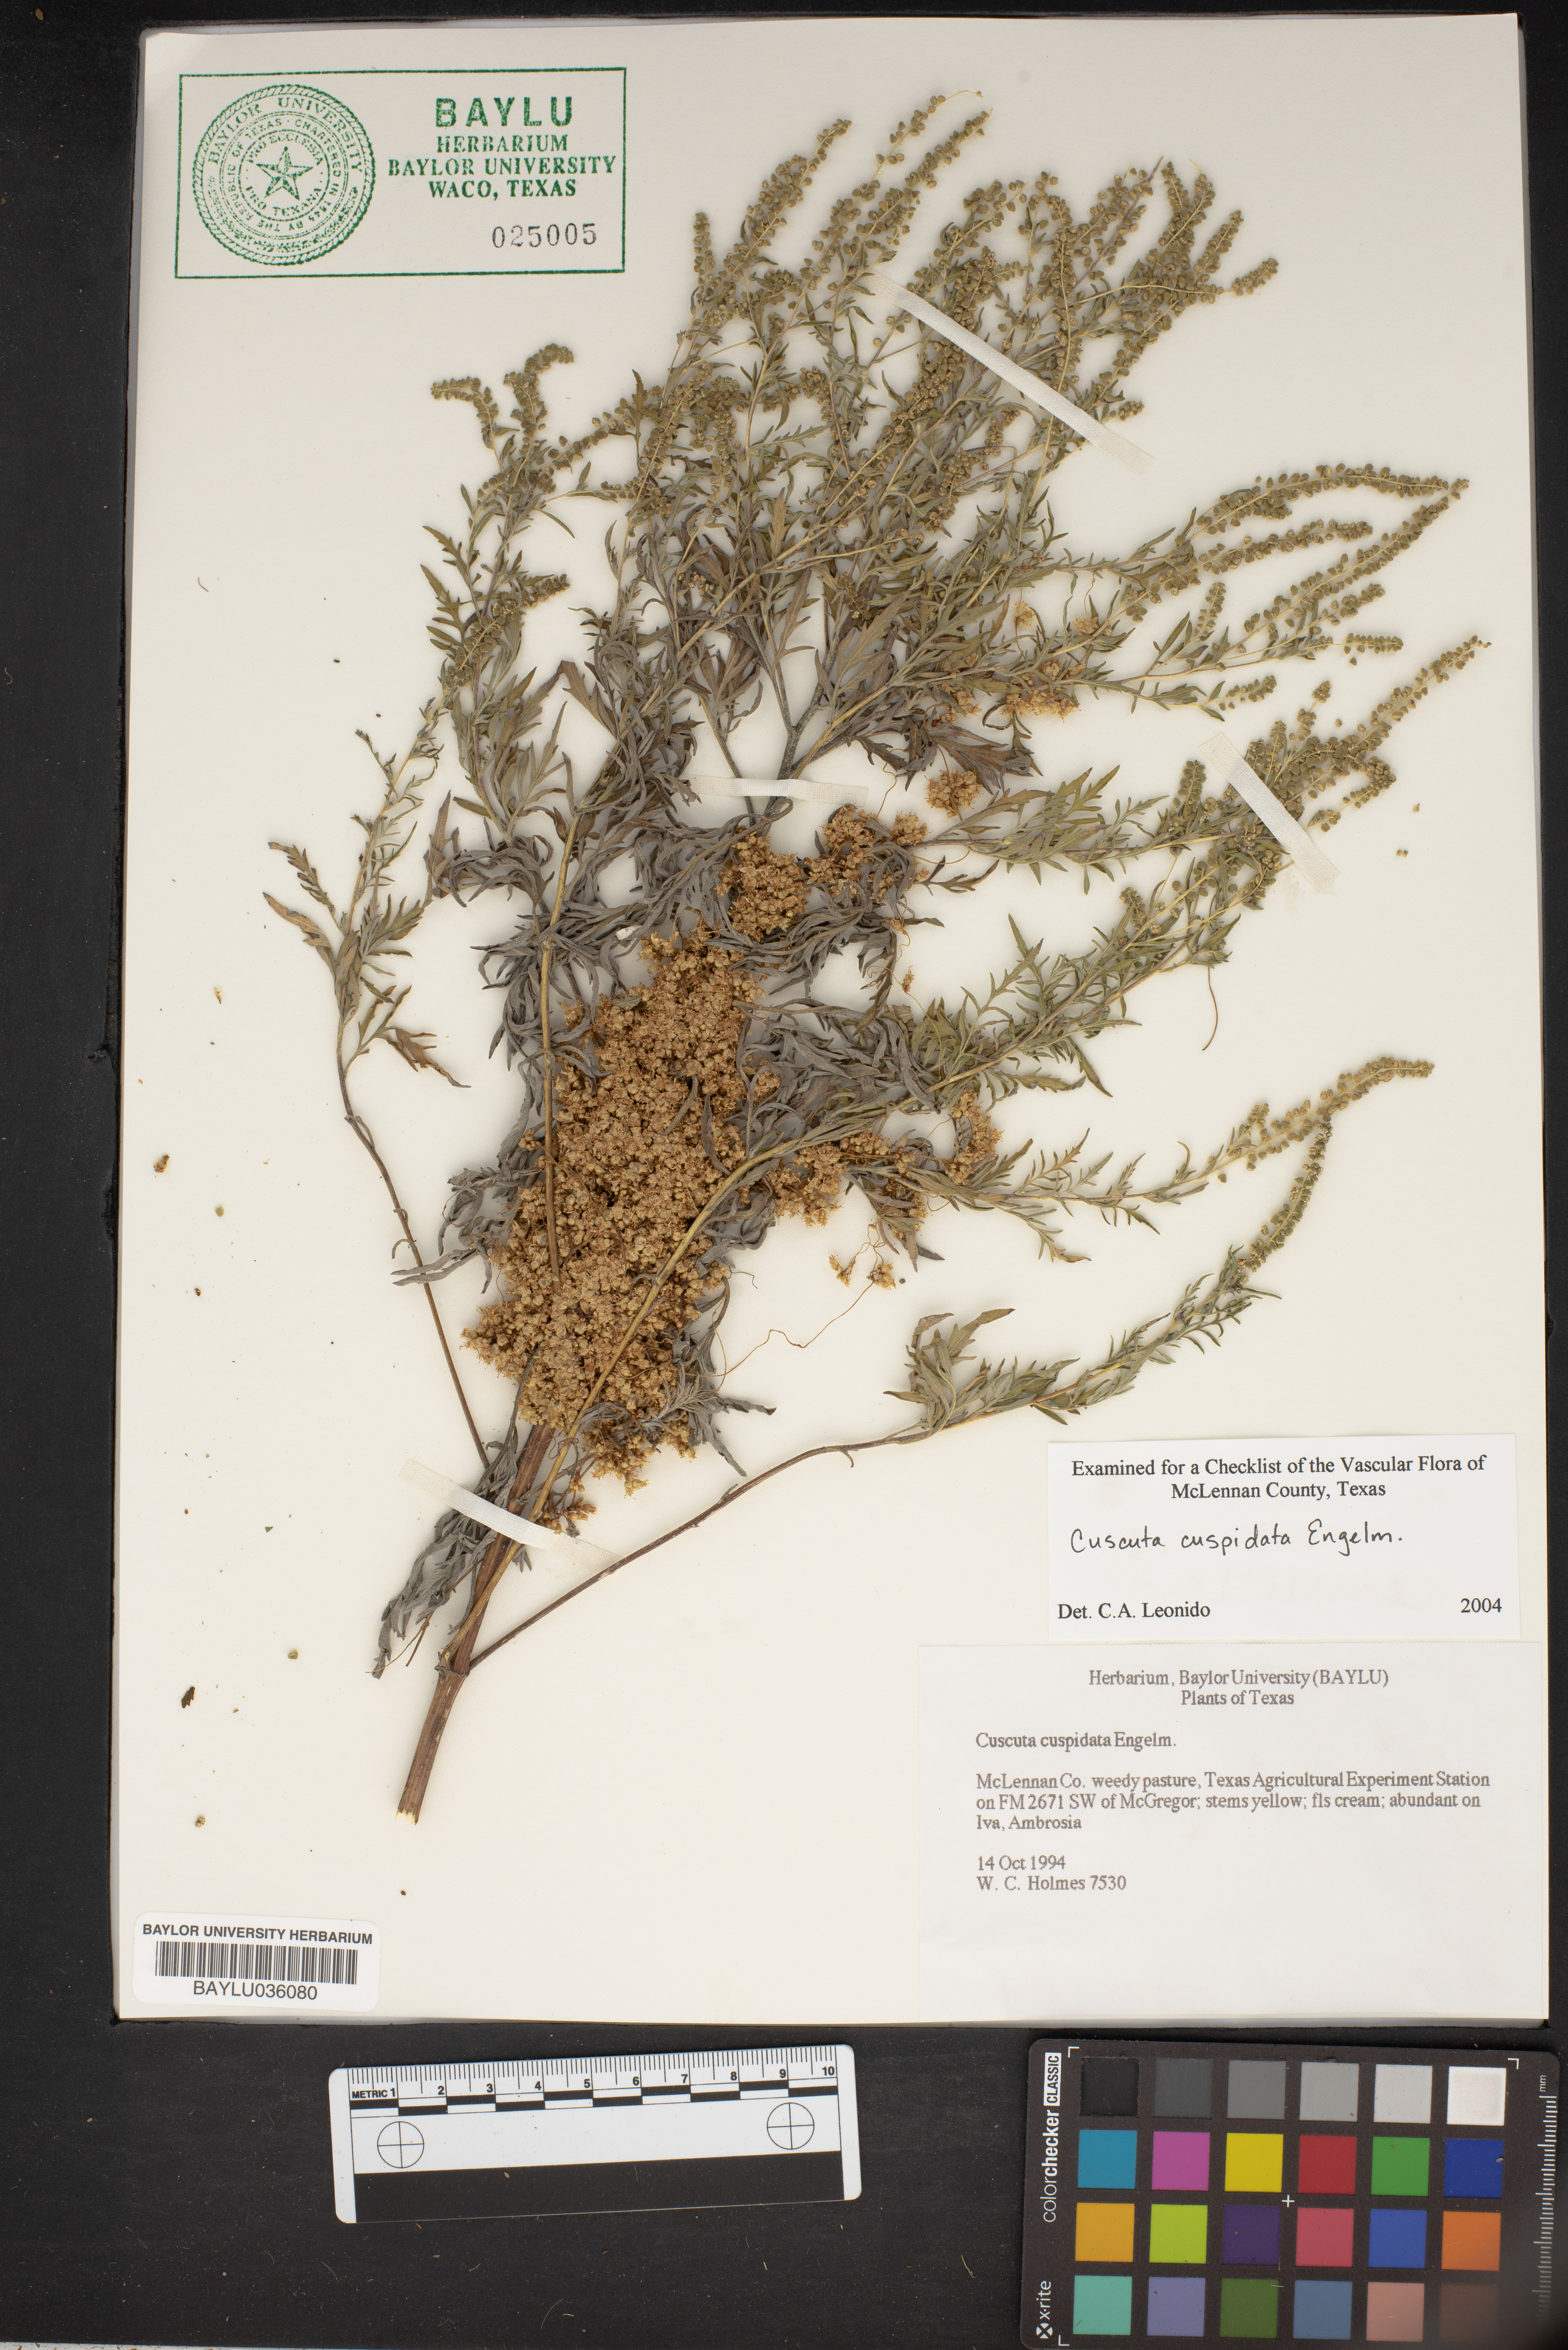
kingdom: Plantae
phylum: Tracheophyta
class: Magnoliopsida
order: Solanales
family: Convolvulaceae
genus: Cuscuta
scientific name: Cuscuta cuspidata
